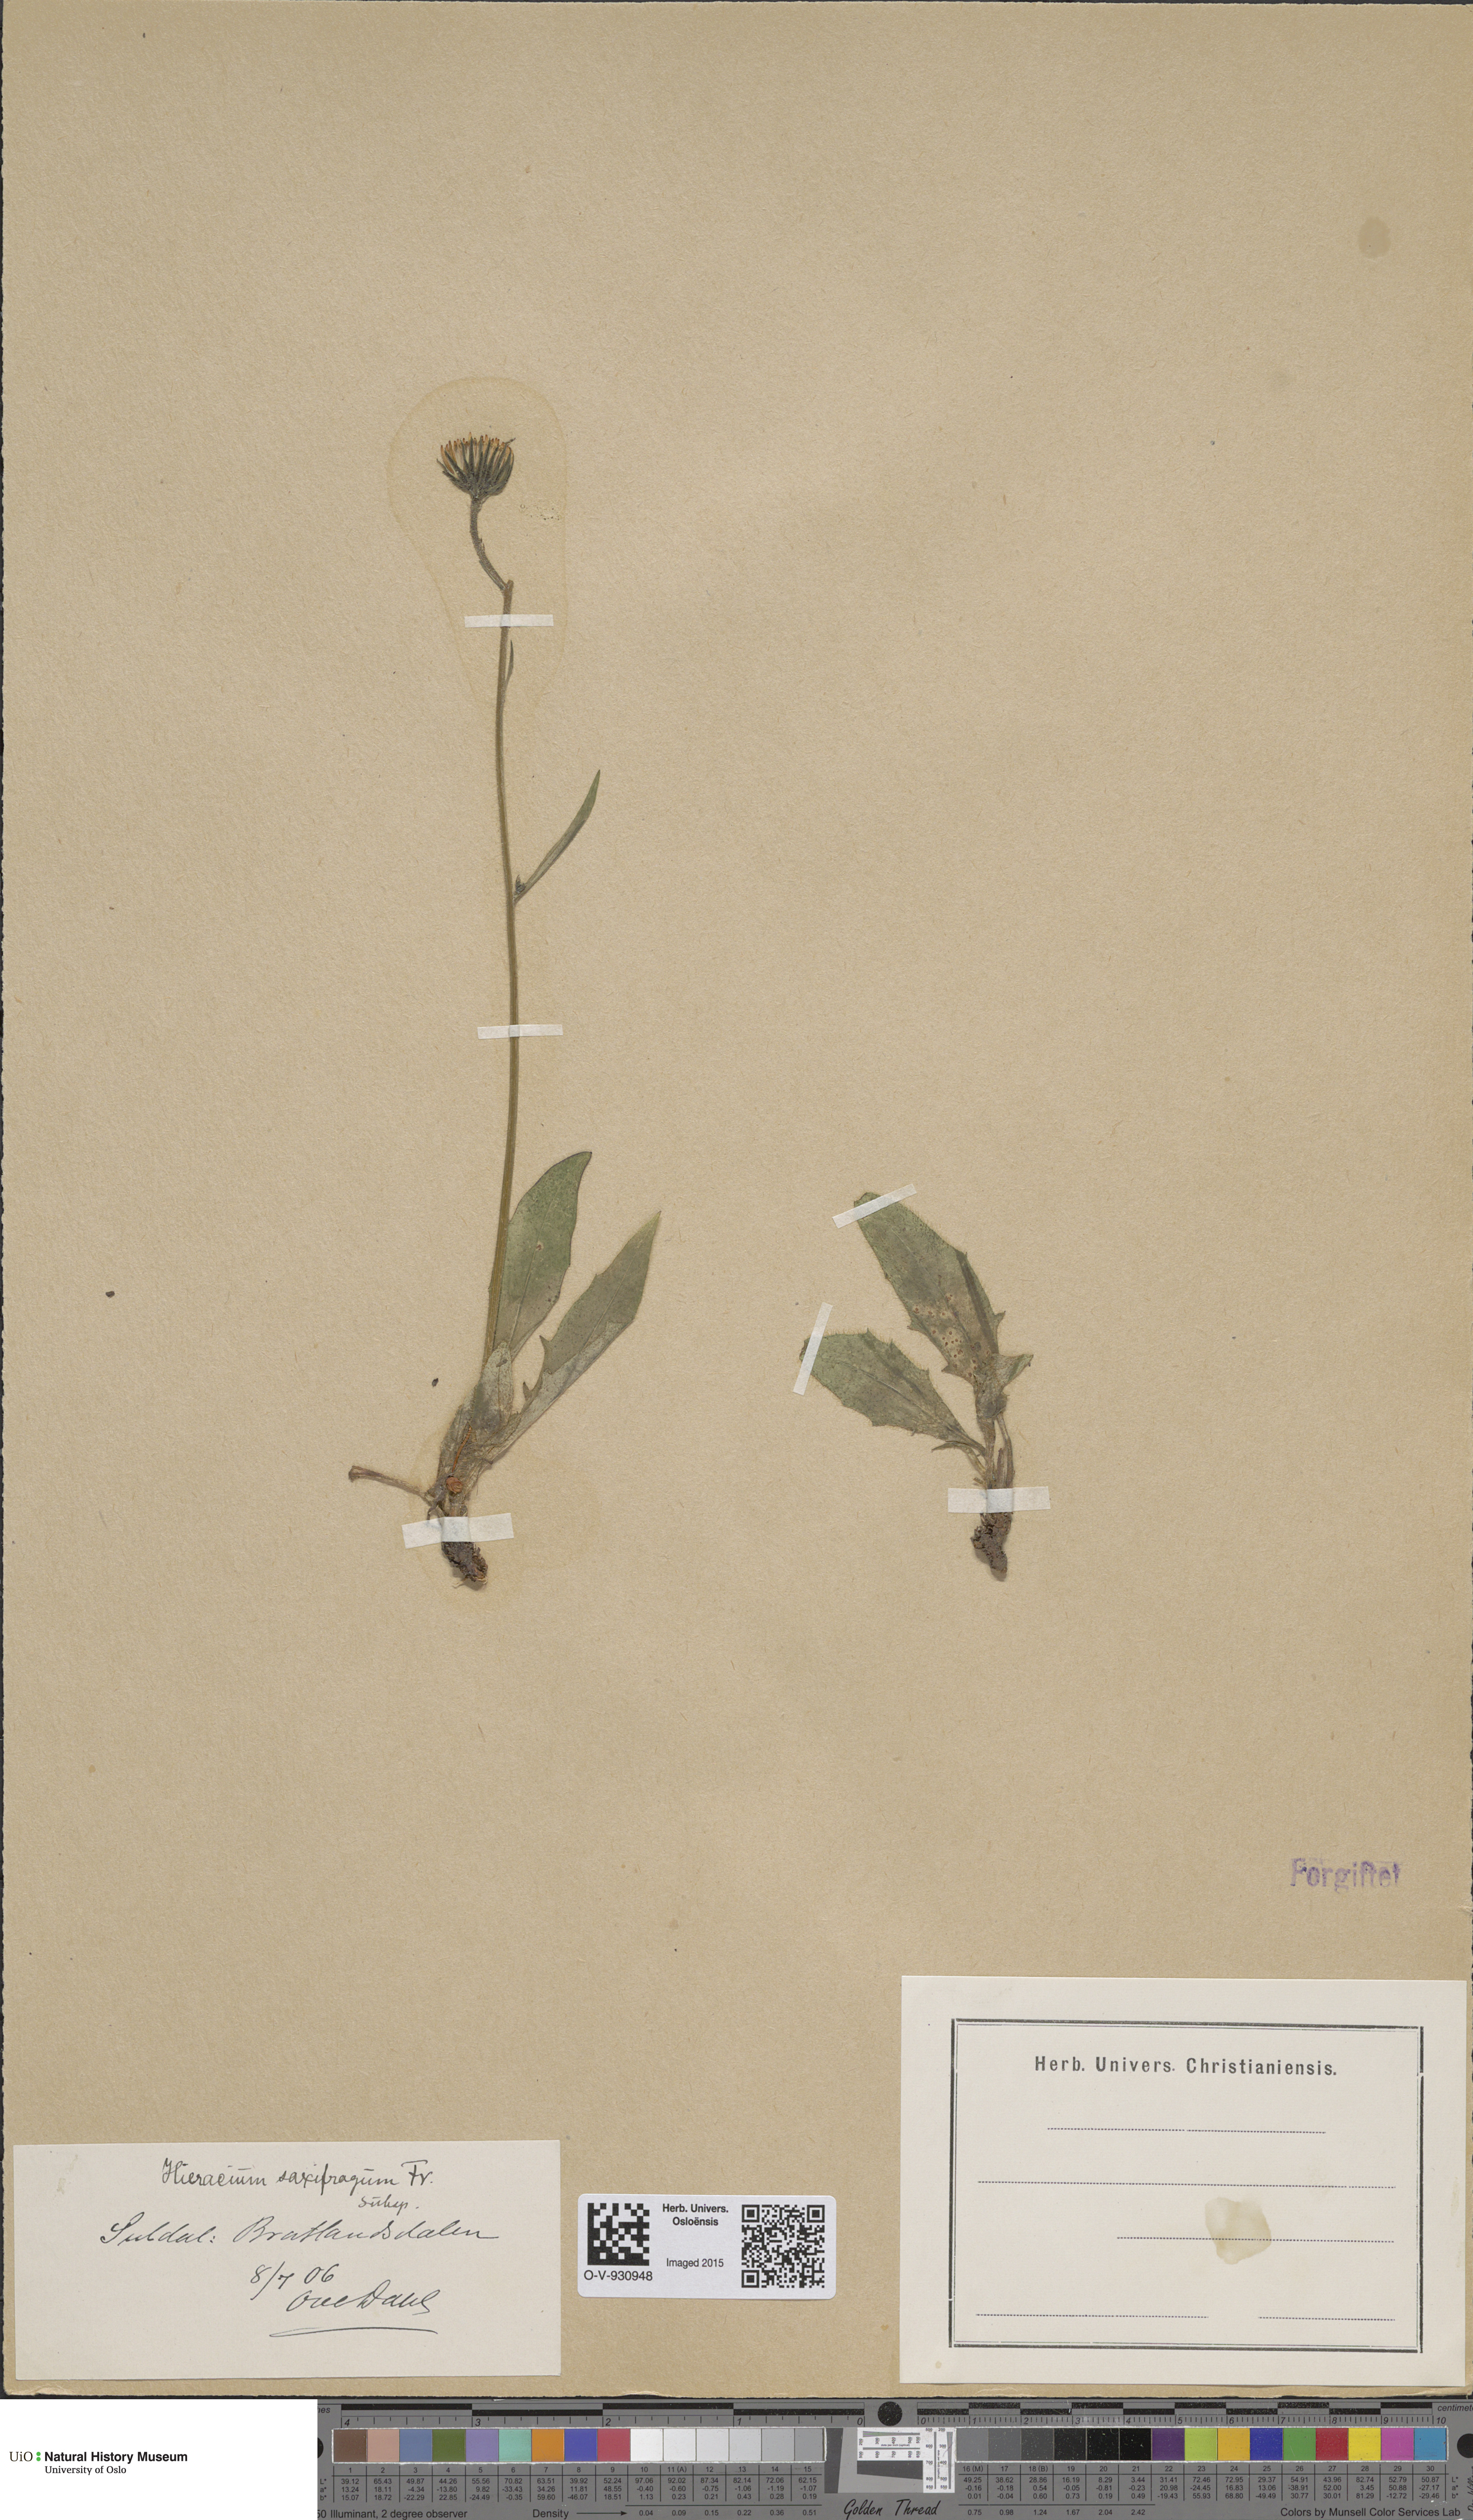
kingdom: Plantae
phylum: Tracheophyta
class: Magnoliopsida
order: Asterales
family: Asteraceae
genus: Hieracium
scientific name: Hieracium saxifragum
